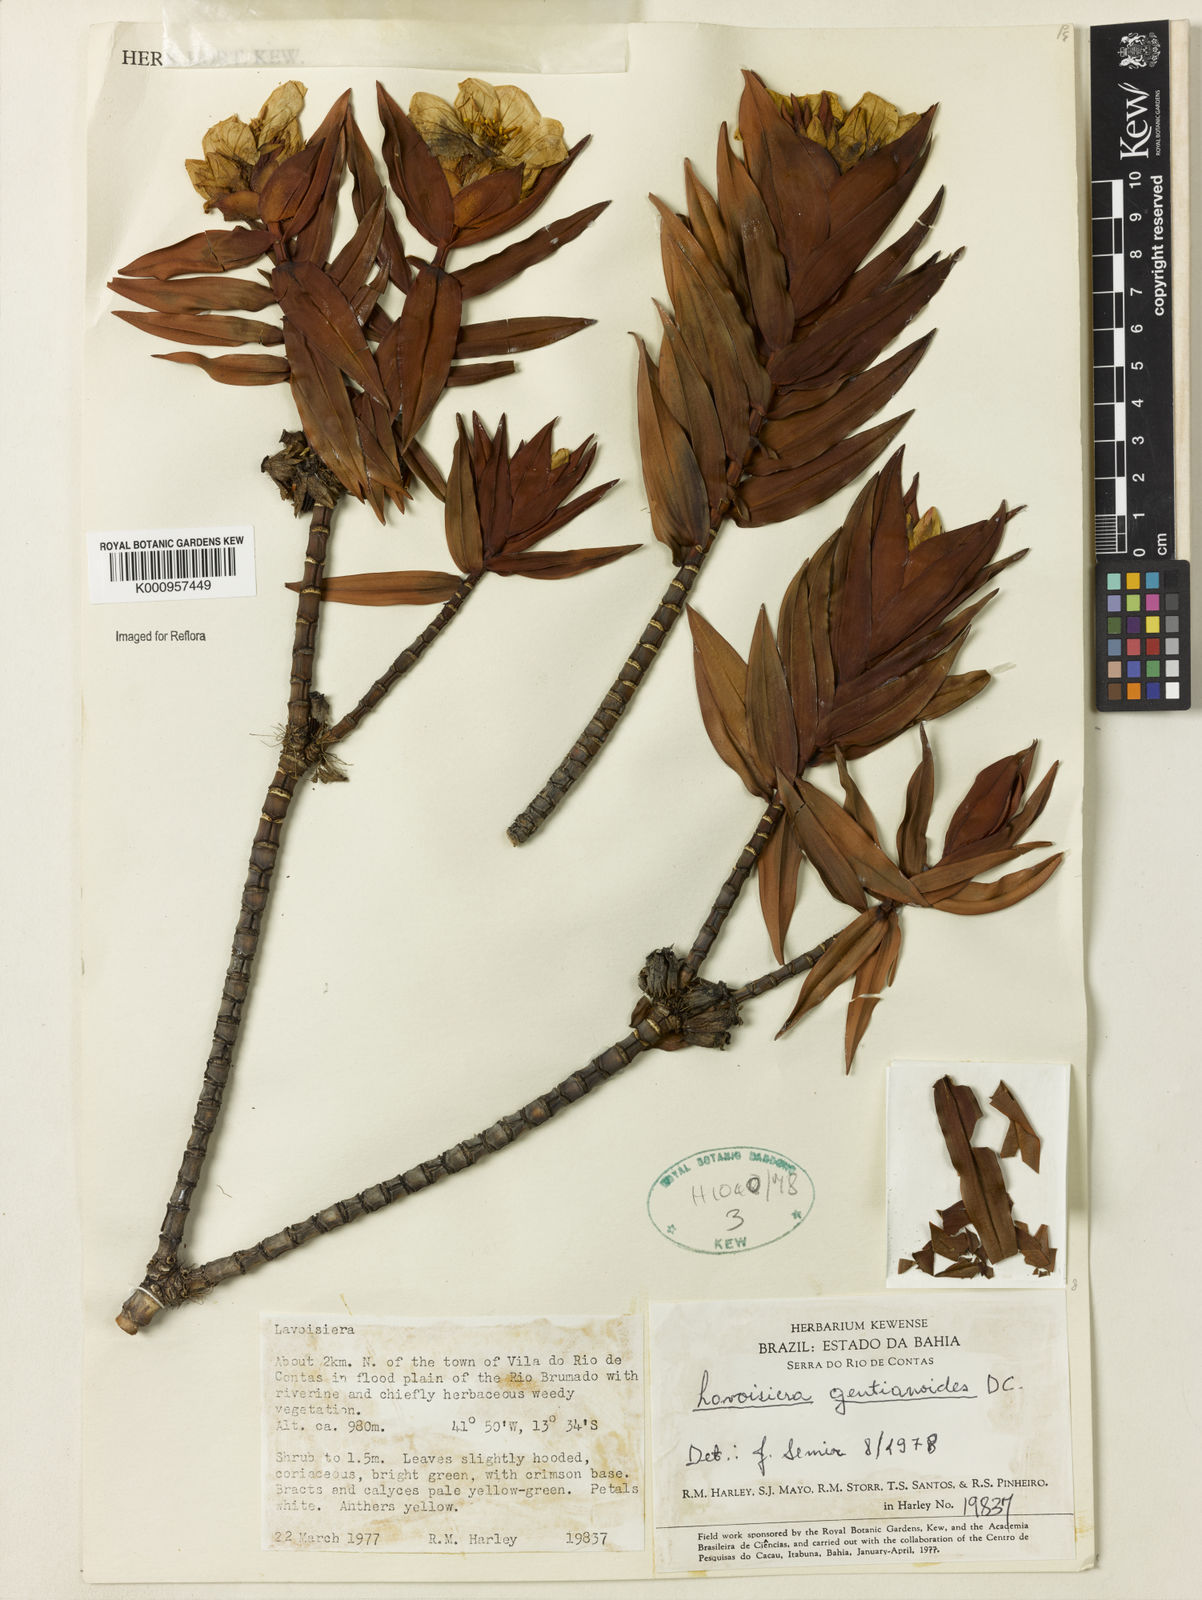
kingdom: Plantae
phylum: Tracheophyta
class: Magnoliopsida
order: Myrtales
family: Melastomataceae
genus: Microlicia
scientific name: Microlicia gentianoides
